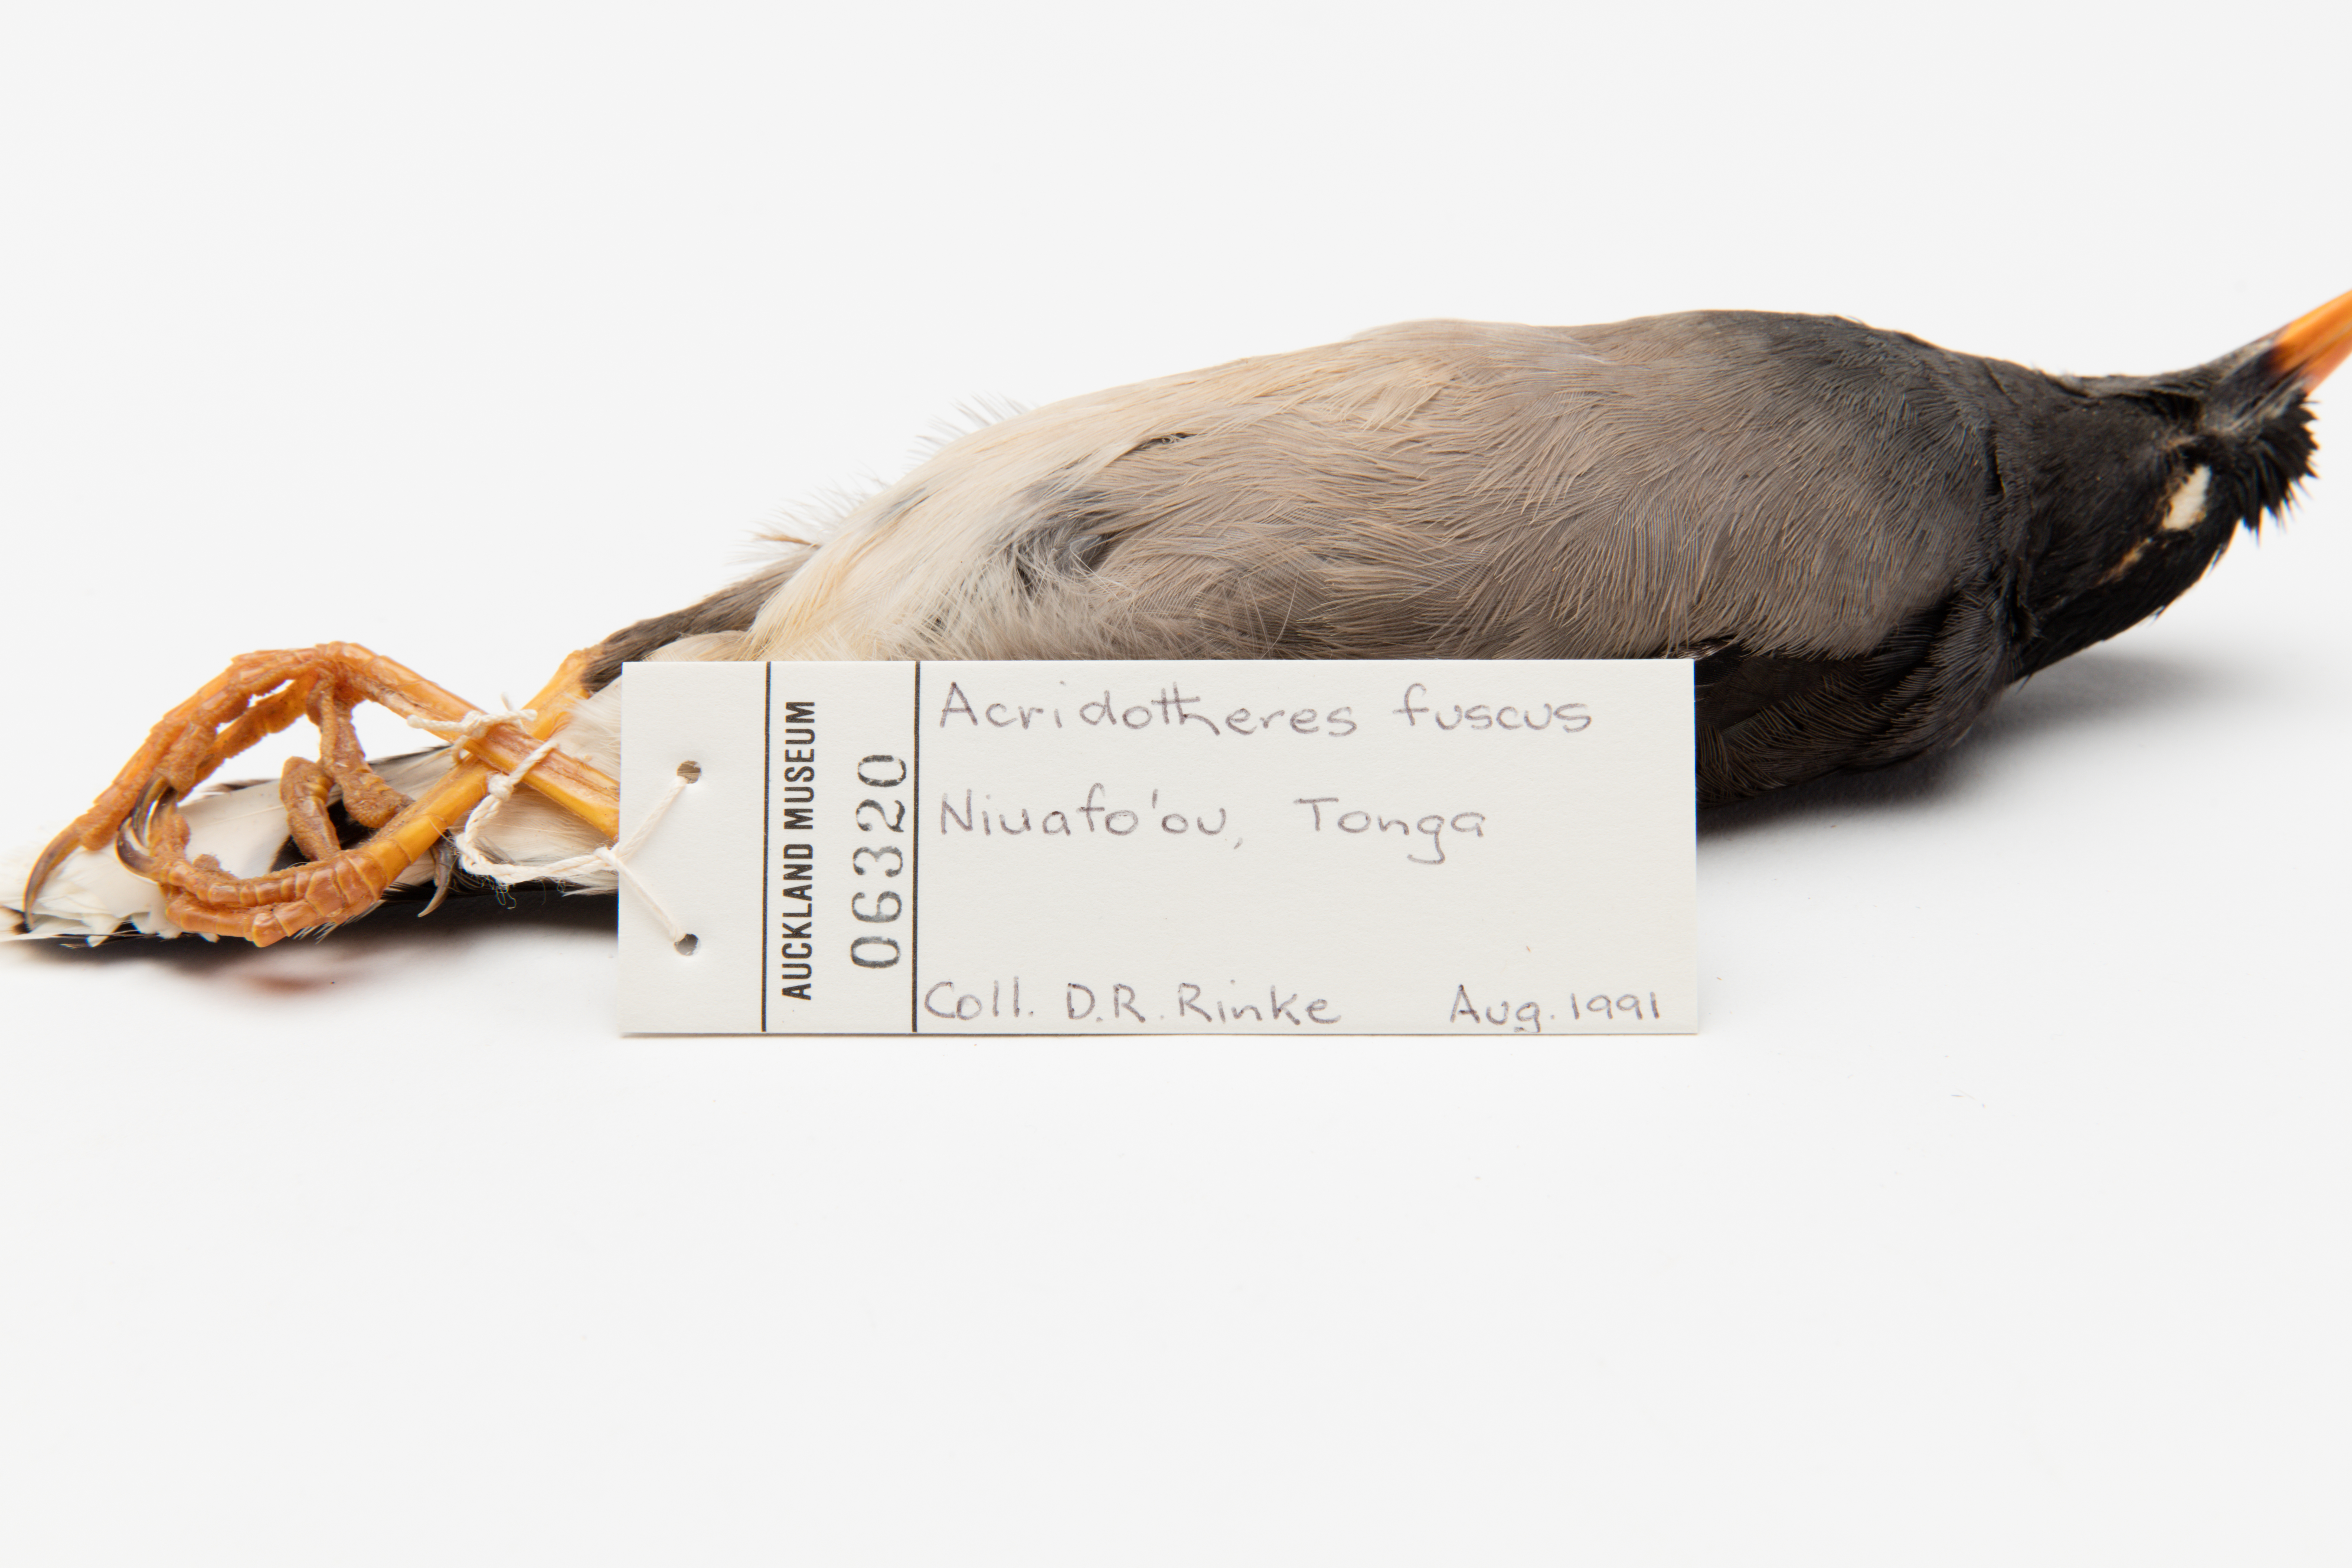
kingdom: Animalia
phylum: Chordata
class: Aves
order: Passeriformes
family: Sturnidae
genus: Acridotheres
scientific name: Acridotheres fuscus
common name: Jungle myna
